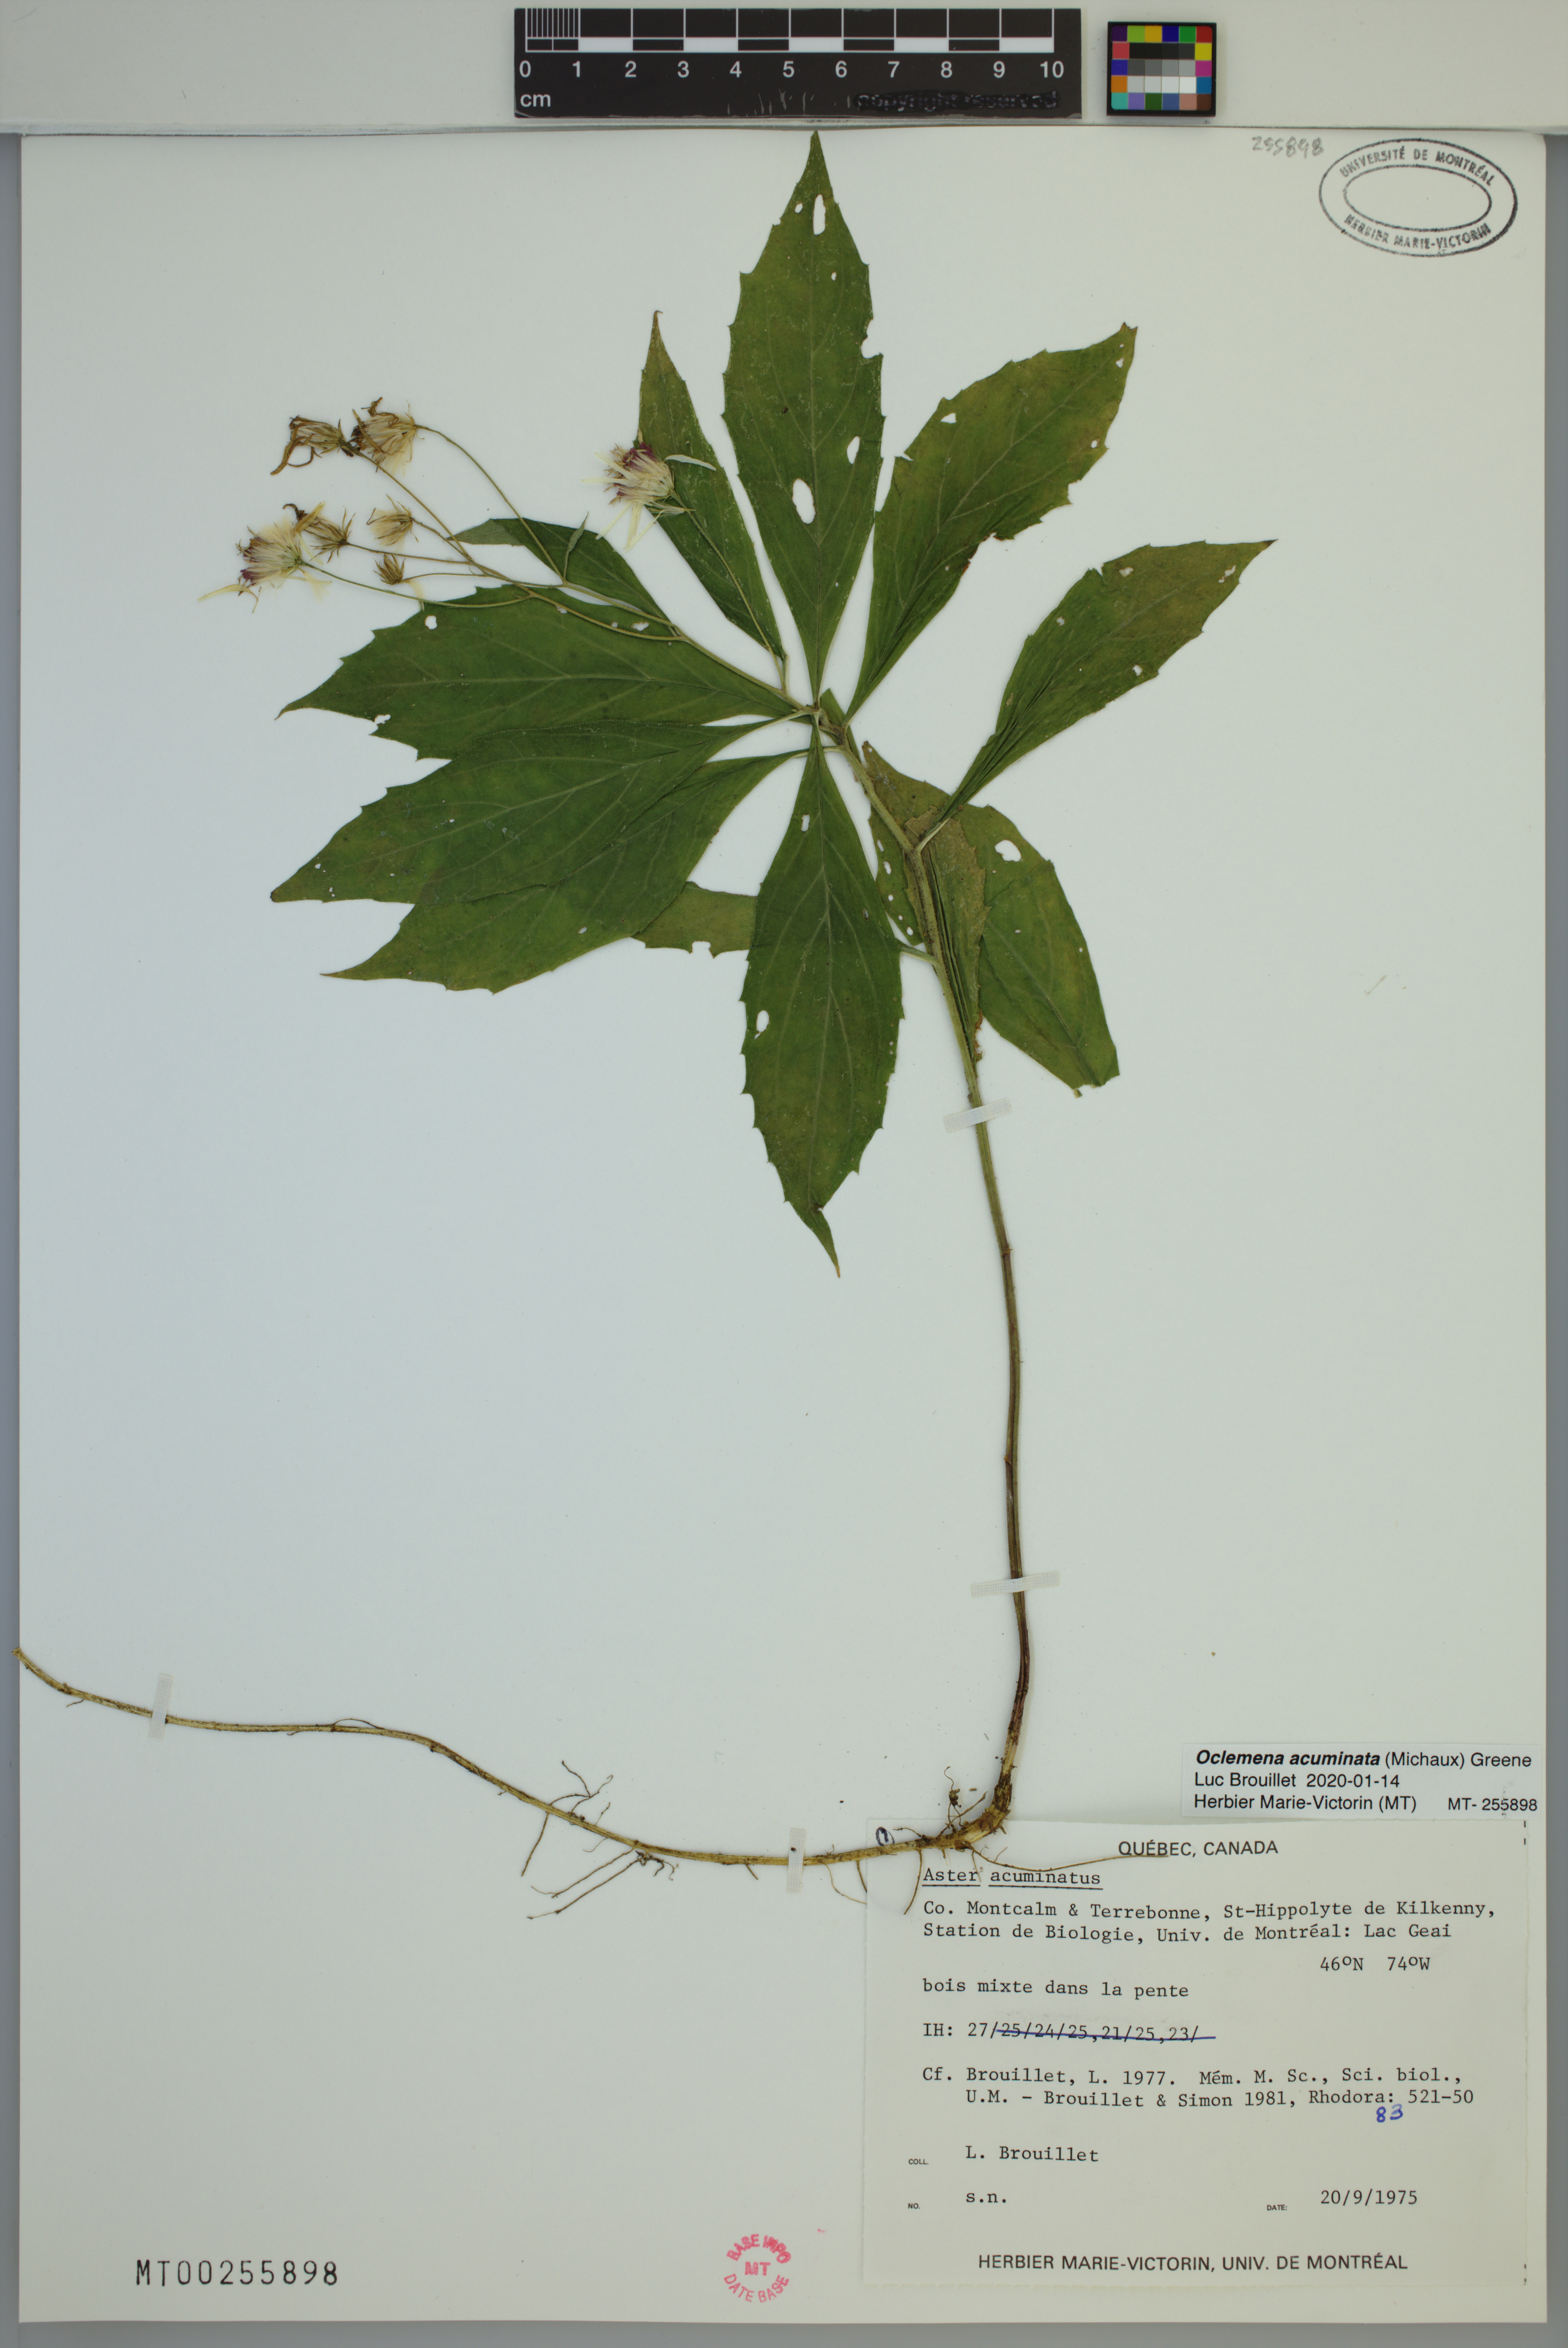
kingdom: Plantae
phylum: Tracheophyta
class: Magnoliopsida
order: Asterales
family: Asteraceae
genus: Oclemena
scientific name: Oclemena acuminata
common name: Mountain aster
